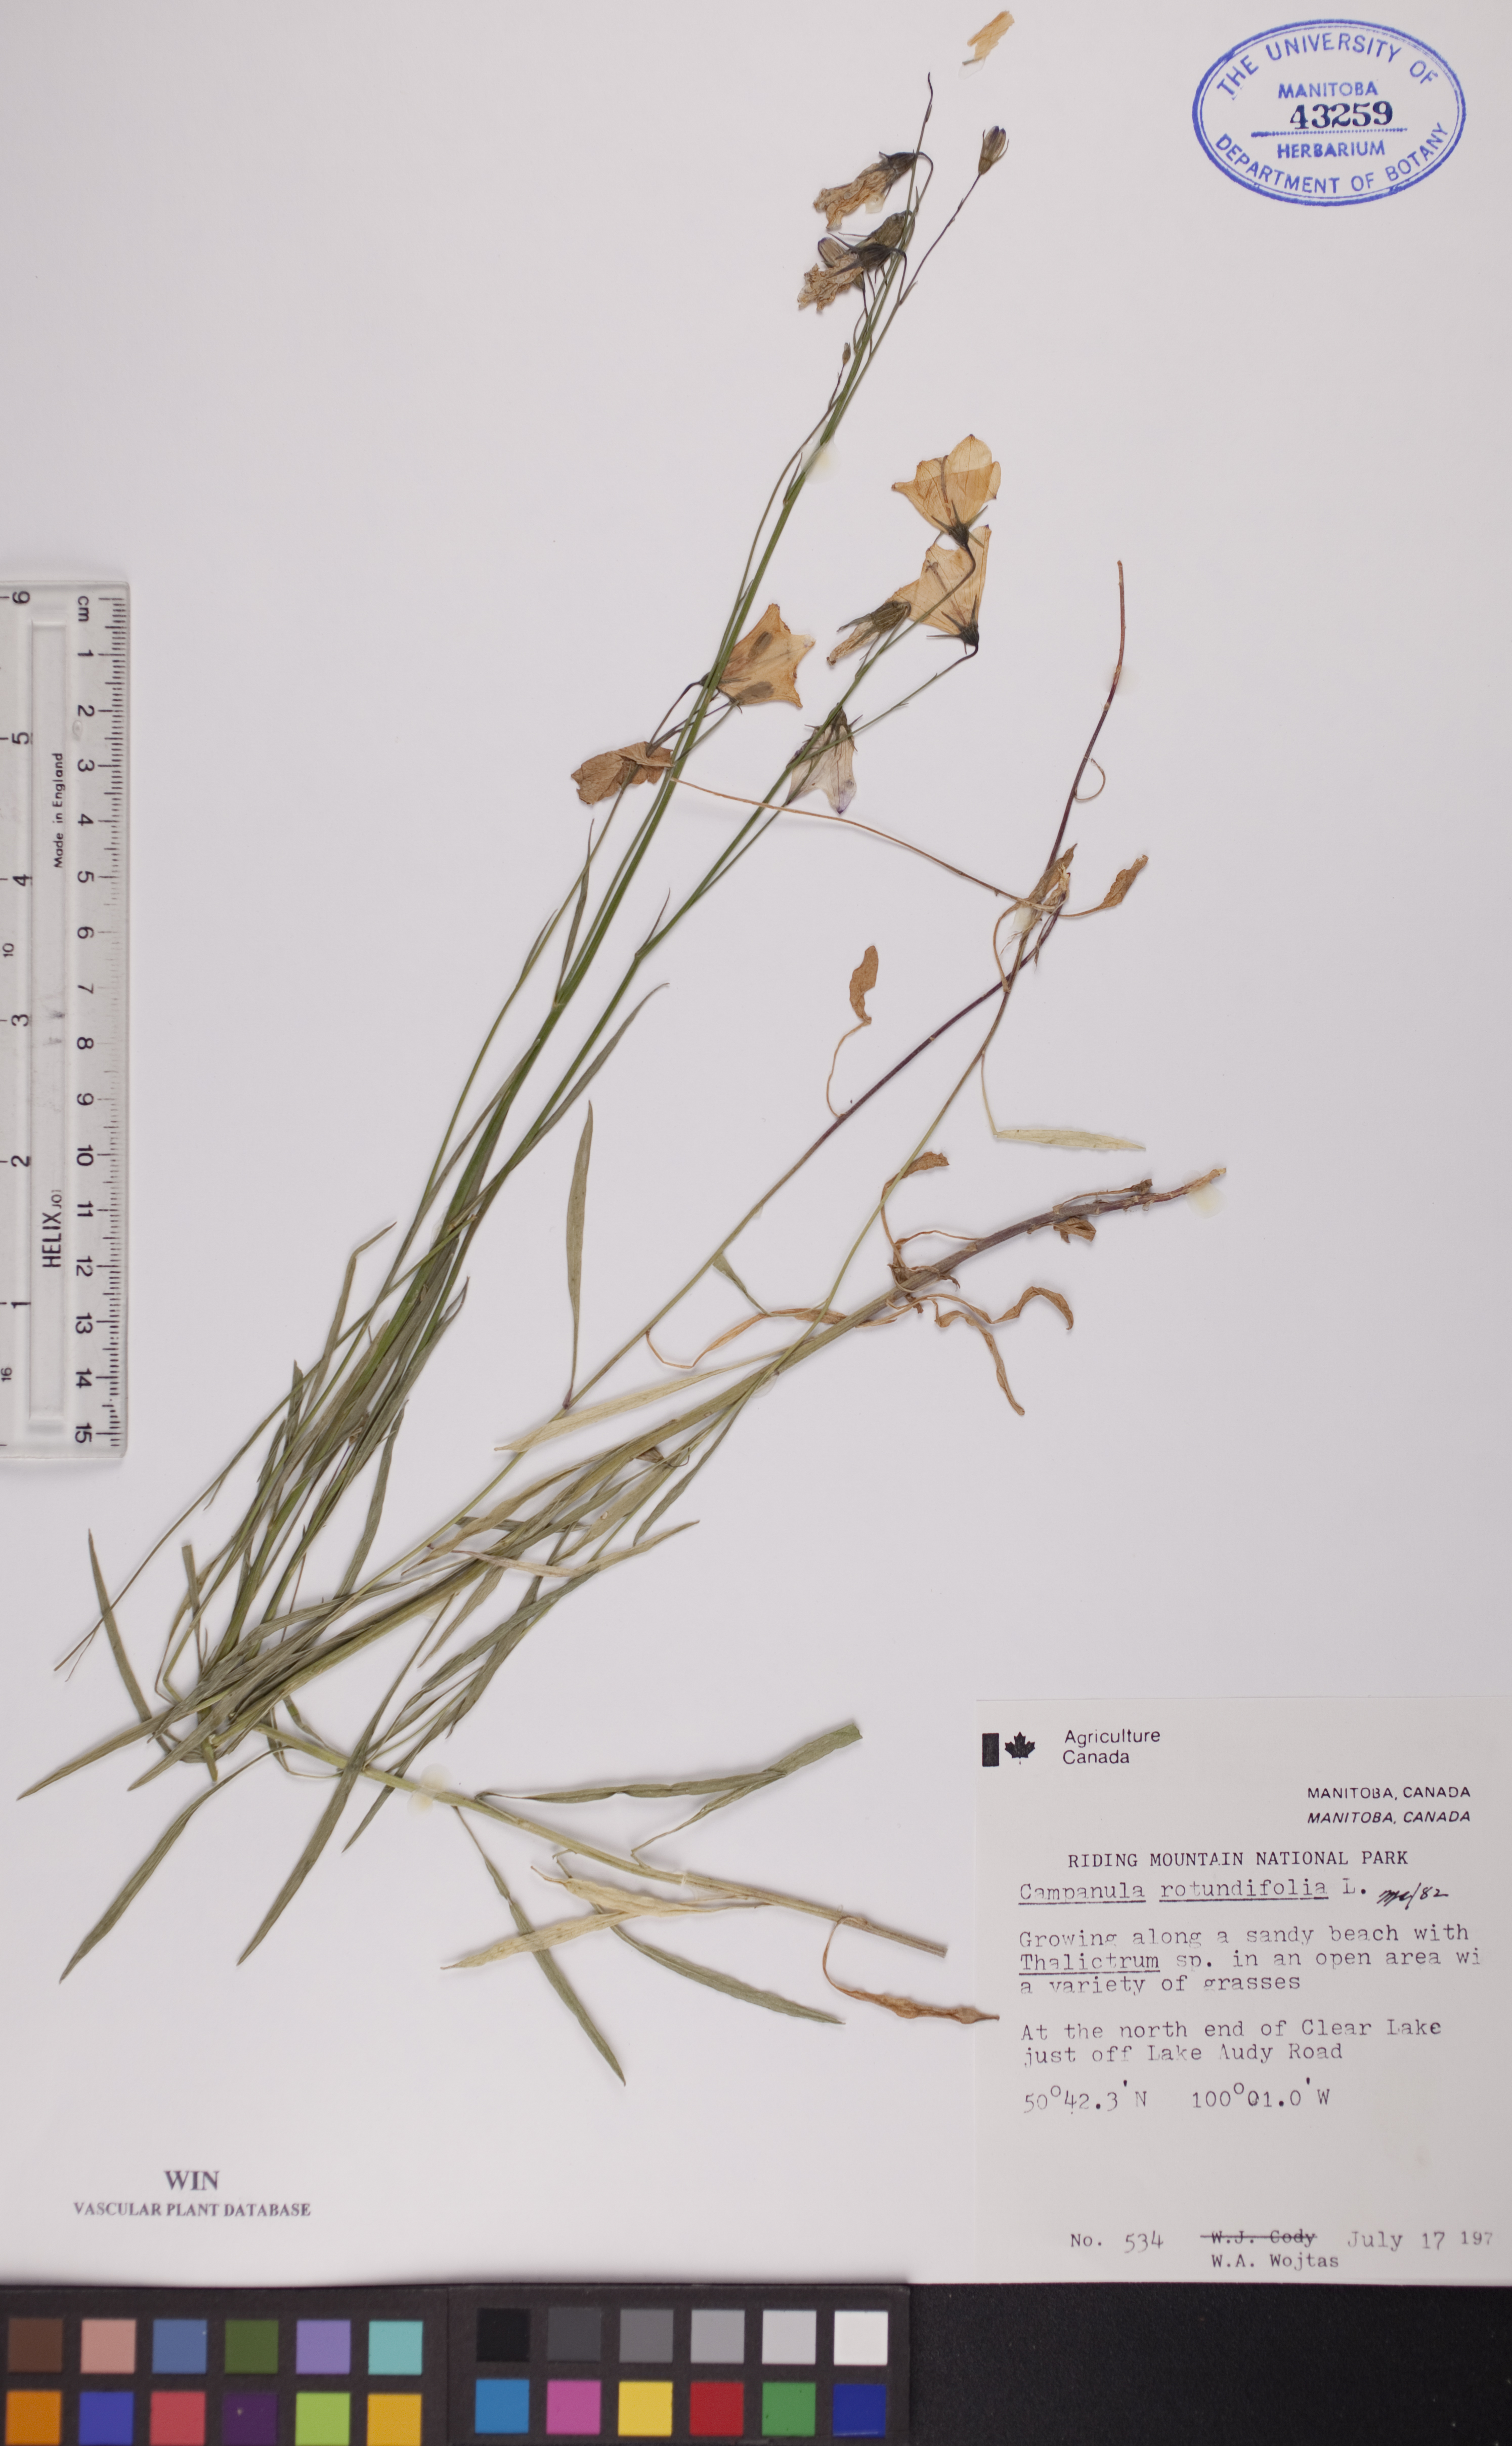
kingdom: Plantae
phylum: Tracheophyta
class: Magnoliopsida
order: Asterales
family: Campanulaceae
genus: Campanula
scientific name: Campanula rotundifolia
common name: Harebell
